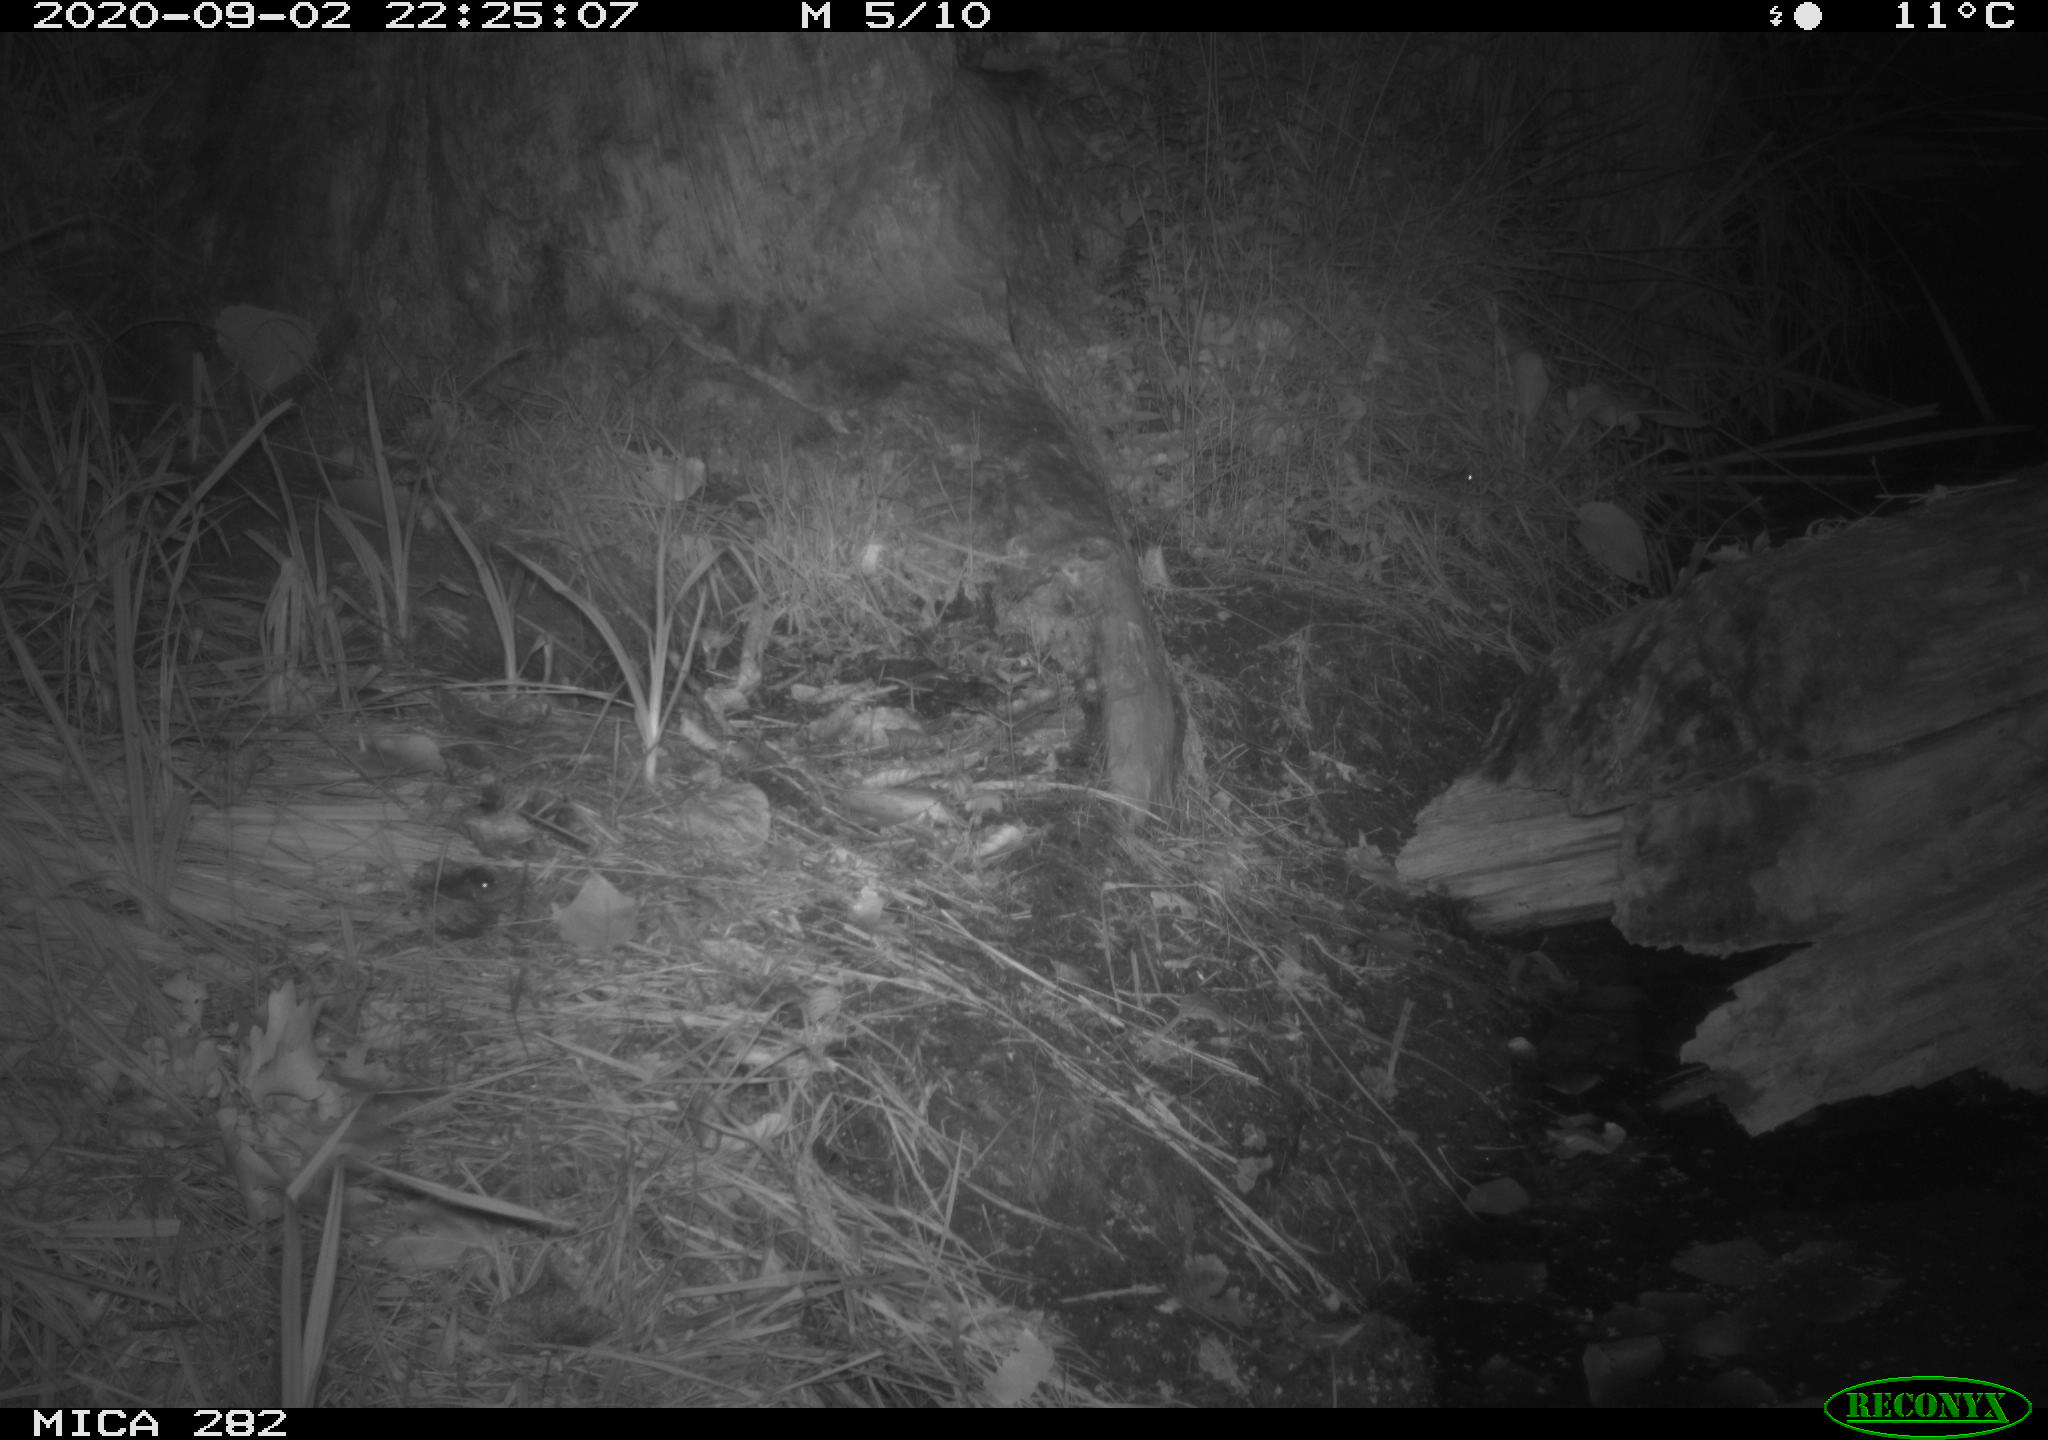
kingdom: Animalia
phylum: Chordata
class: Mammalia
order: Carnivora
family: Mustelidae
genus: Martes
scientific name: Martes foina
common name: Beech marten
